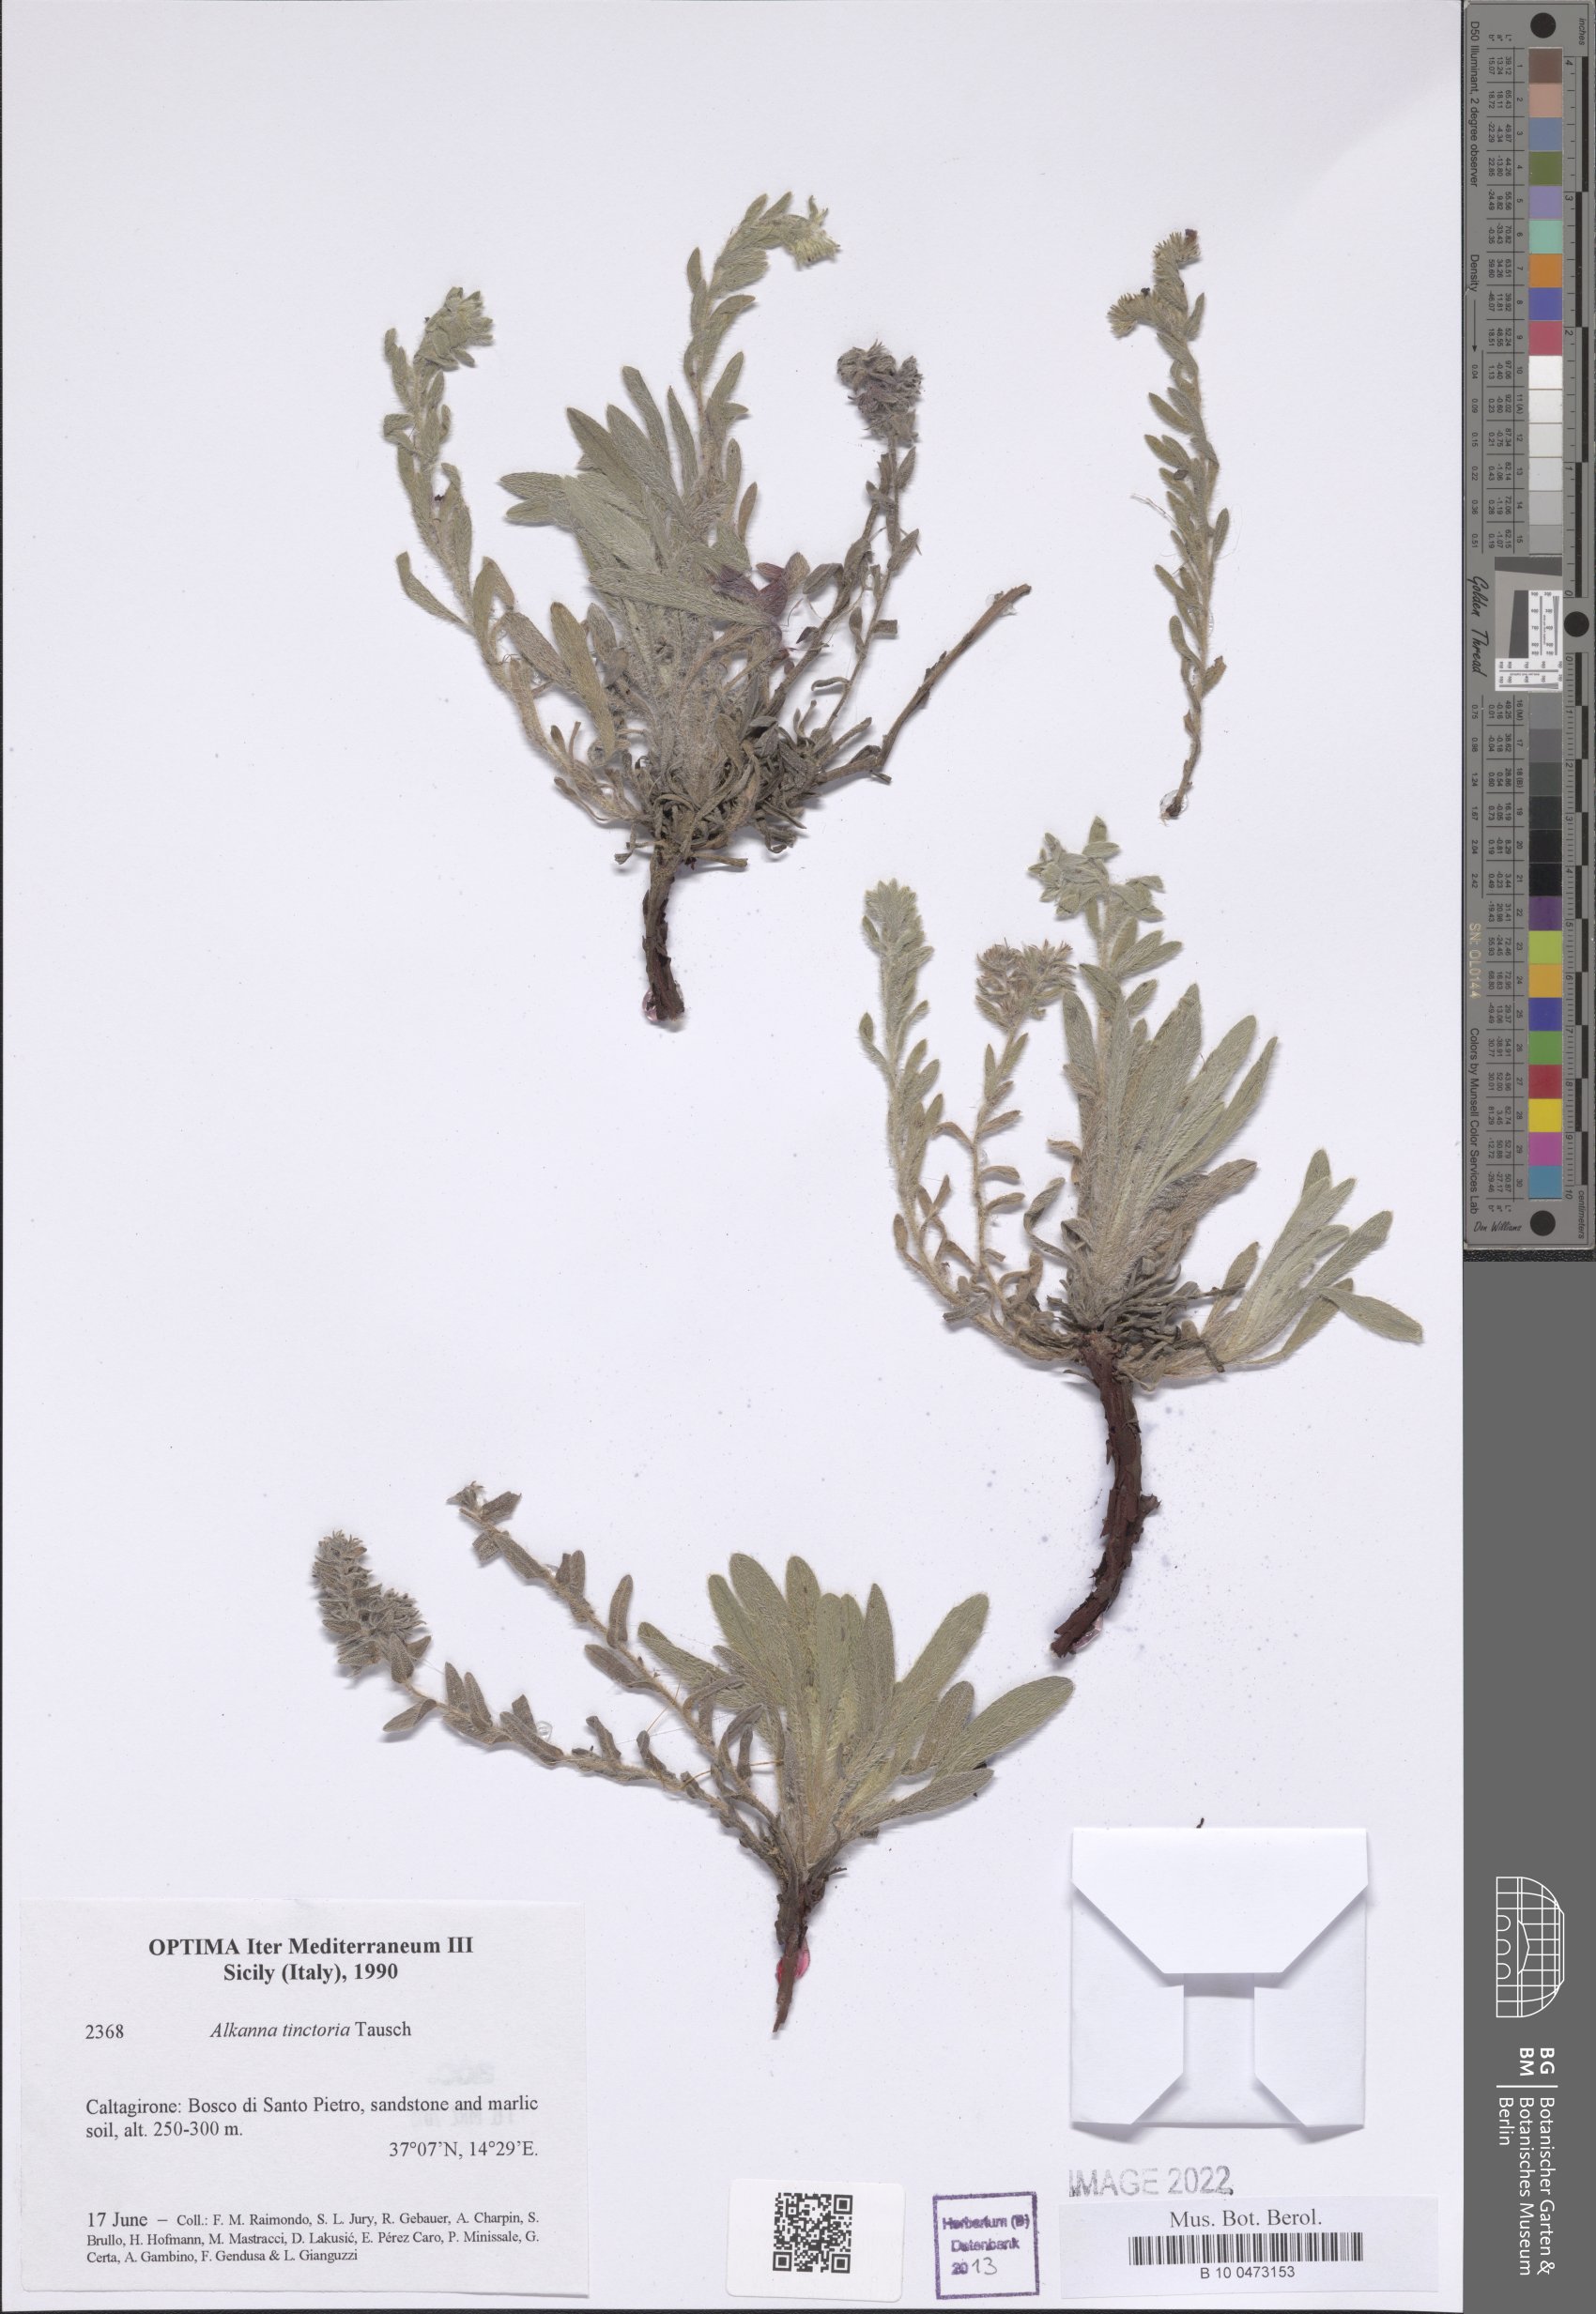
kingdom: Plantae
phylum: Tracheophyta
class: Magnoliopsida
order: Boraginales
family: Boraginaceae
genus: Alkanna
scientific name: Alkanna tinctoria
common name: Dyer's-alkanet
